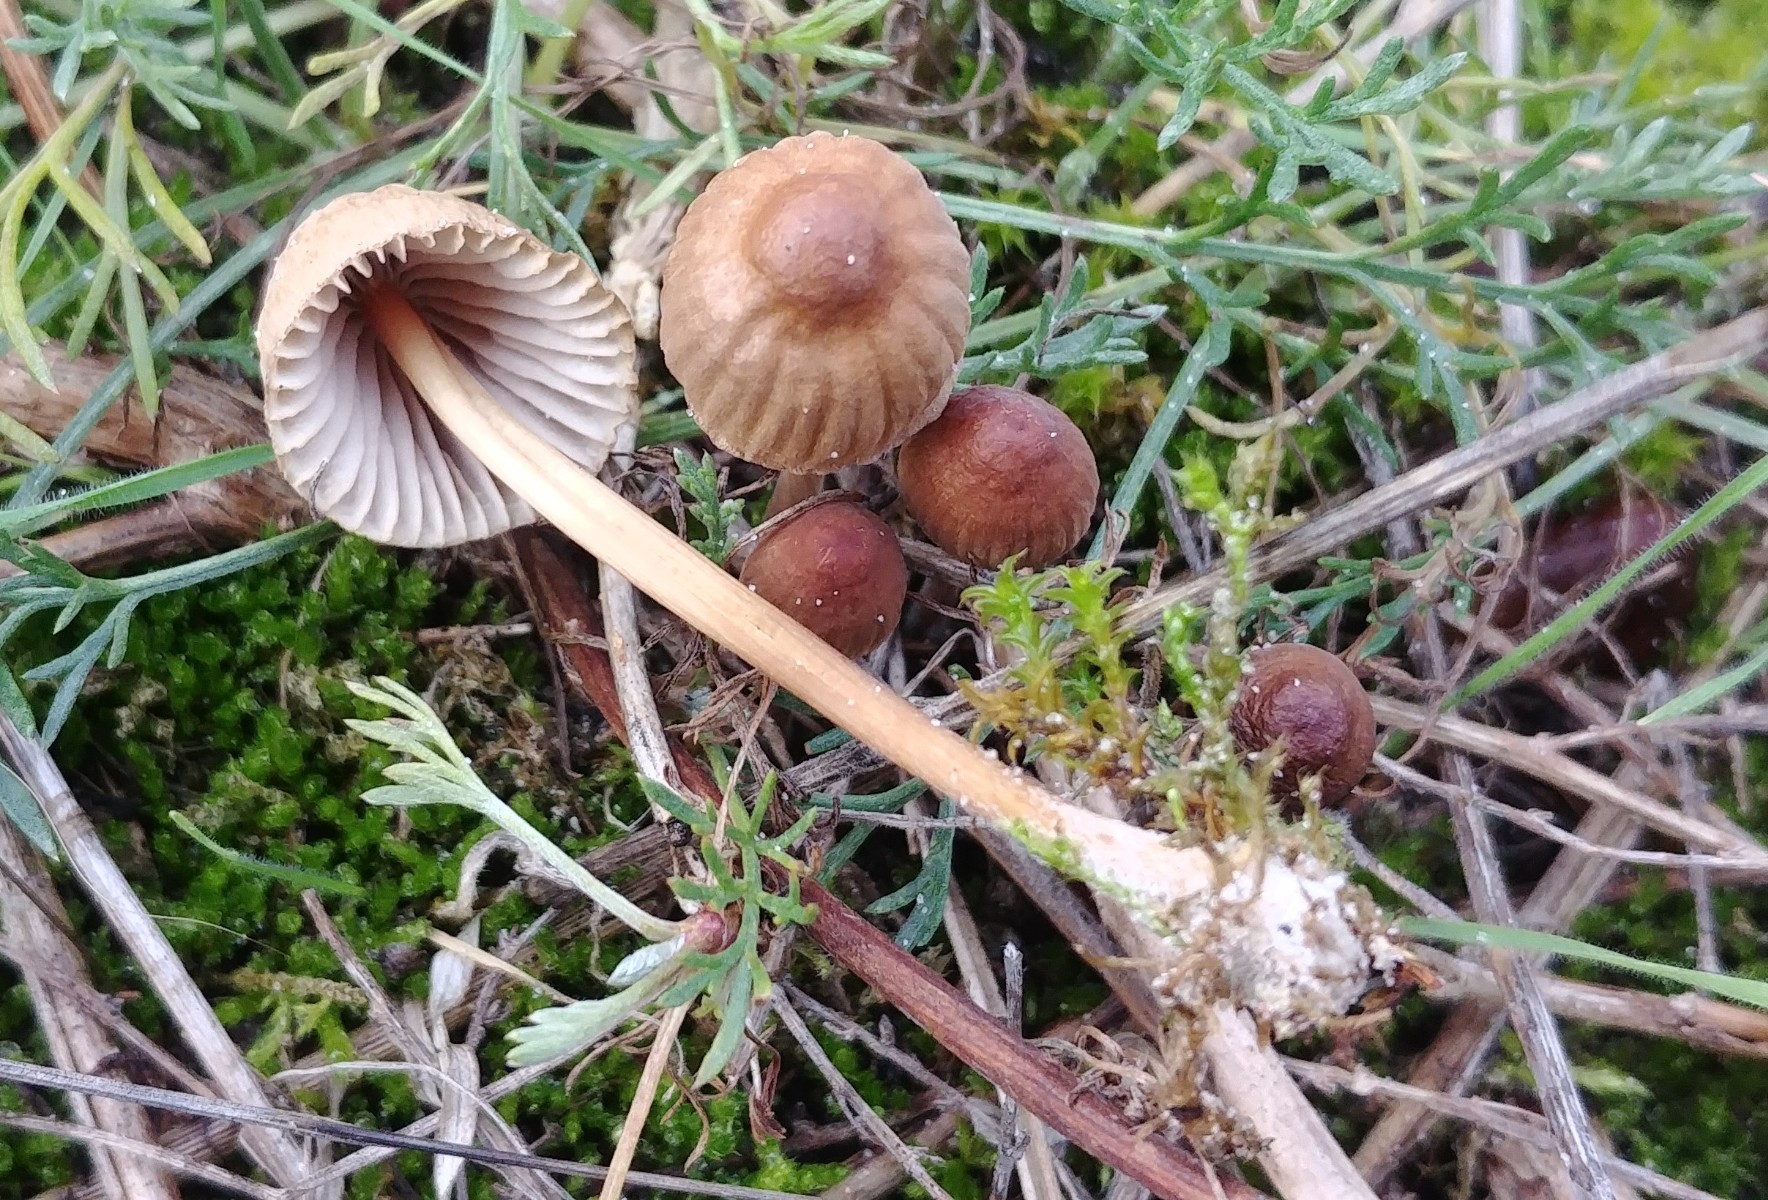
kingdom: Fungi
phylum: Basidiomycota
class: Agaricomycetes
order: Agaricales
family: Mycenaceae
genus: Mycena
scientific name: Mycena olivaceomarginata
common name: brunægget huesvamp
